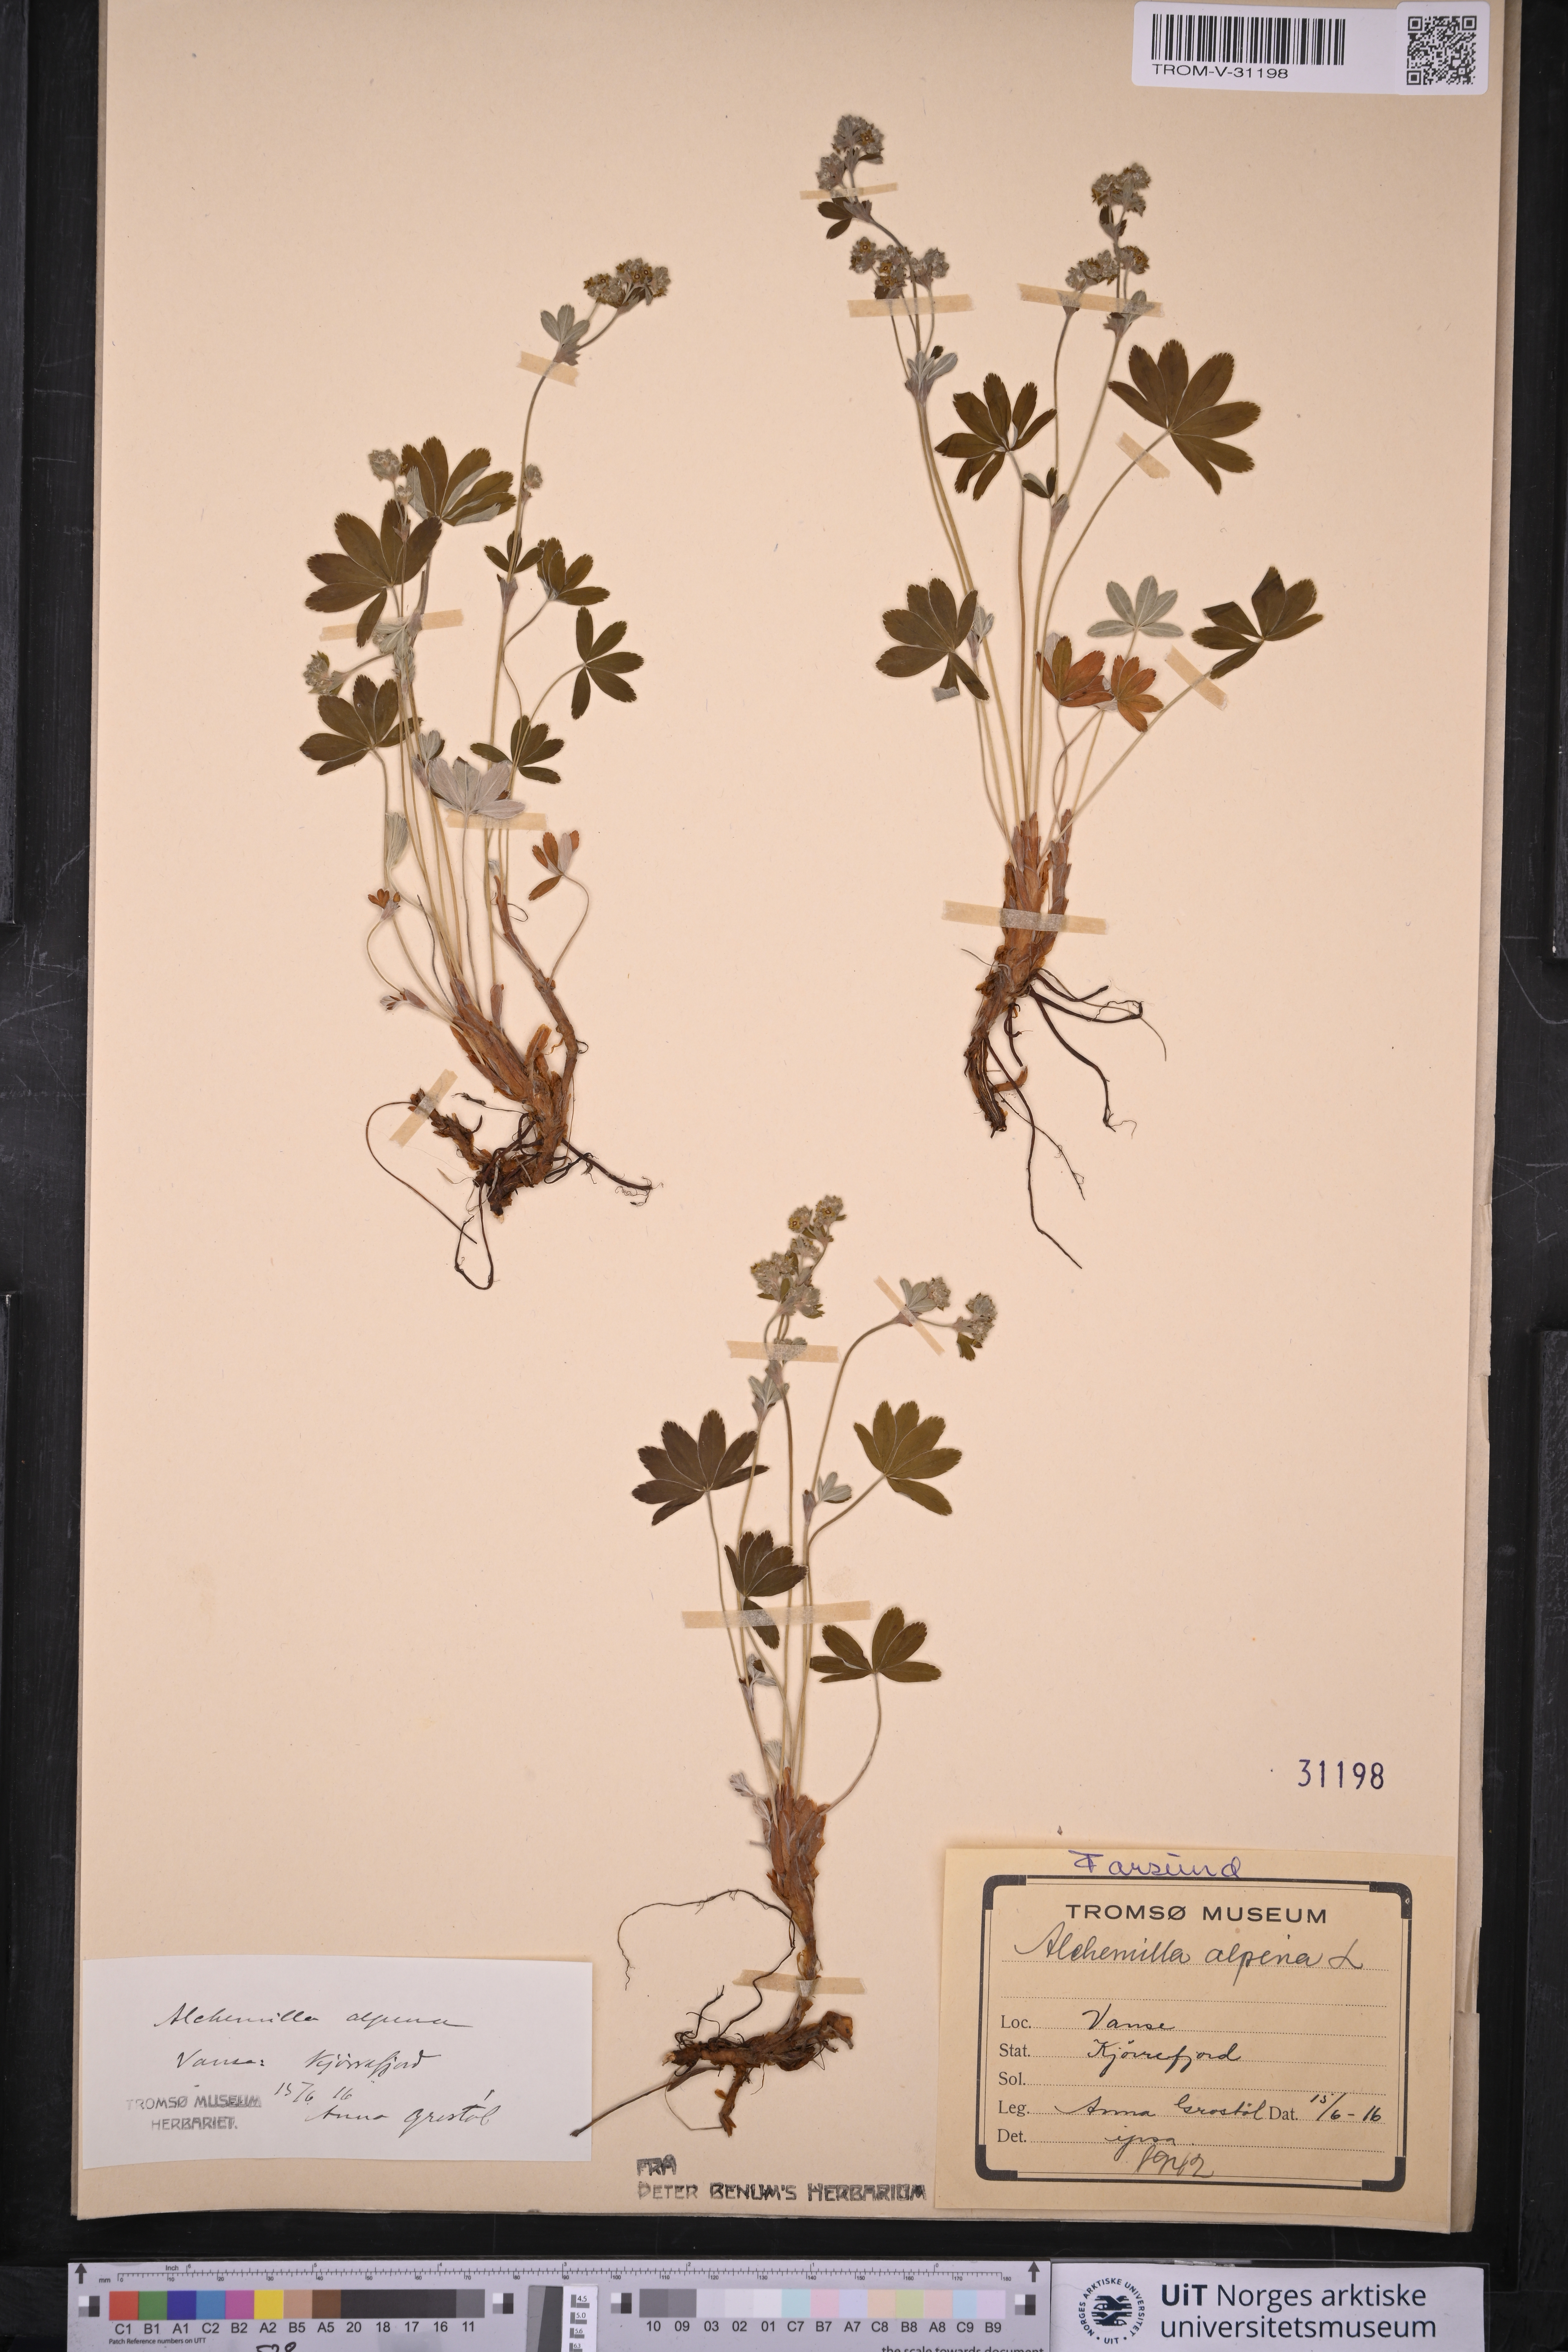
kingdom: Plantae
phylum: Tracheophyta
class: Magnoliopsida
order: Rosales
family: Rosaceae
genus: Alchemilla
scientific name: Alchemilla alpina
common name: Alpine lady's-mantle
